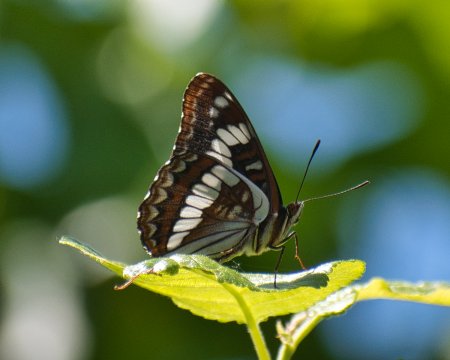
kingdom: Animalia
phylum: Arthropoda
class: Insecta
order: Lepidoptera
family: Nymphalidae
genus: Limenitis
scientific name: Limenitis lorquini
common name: Lorquin's Admiral
